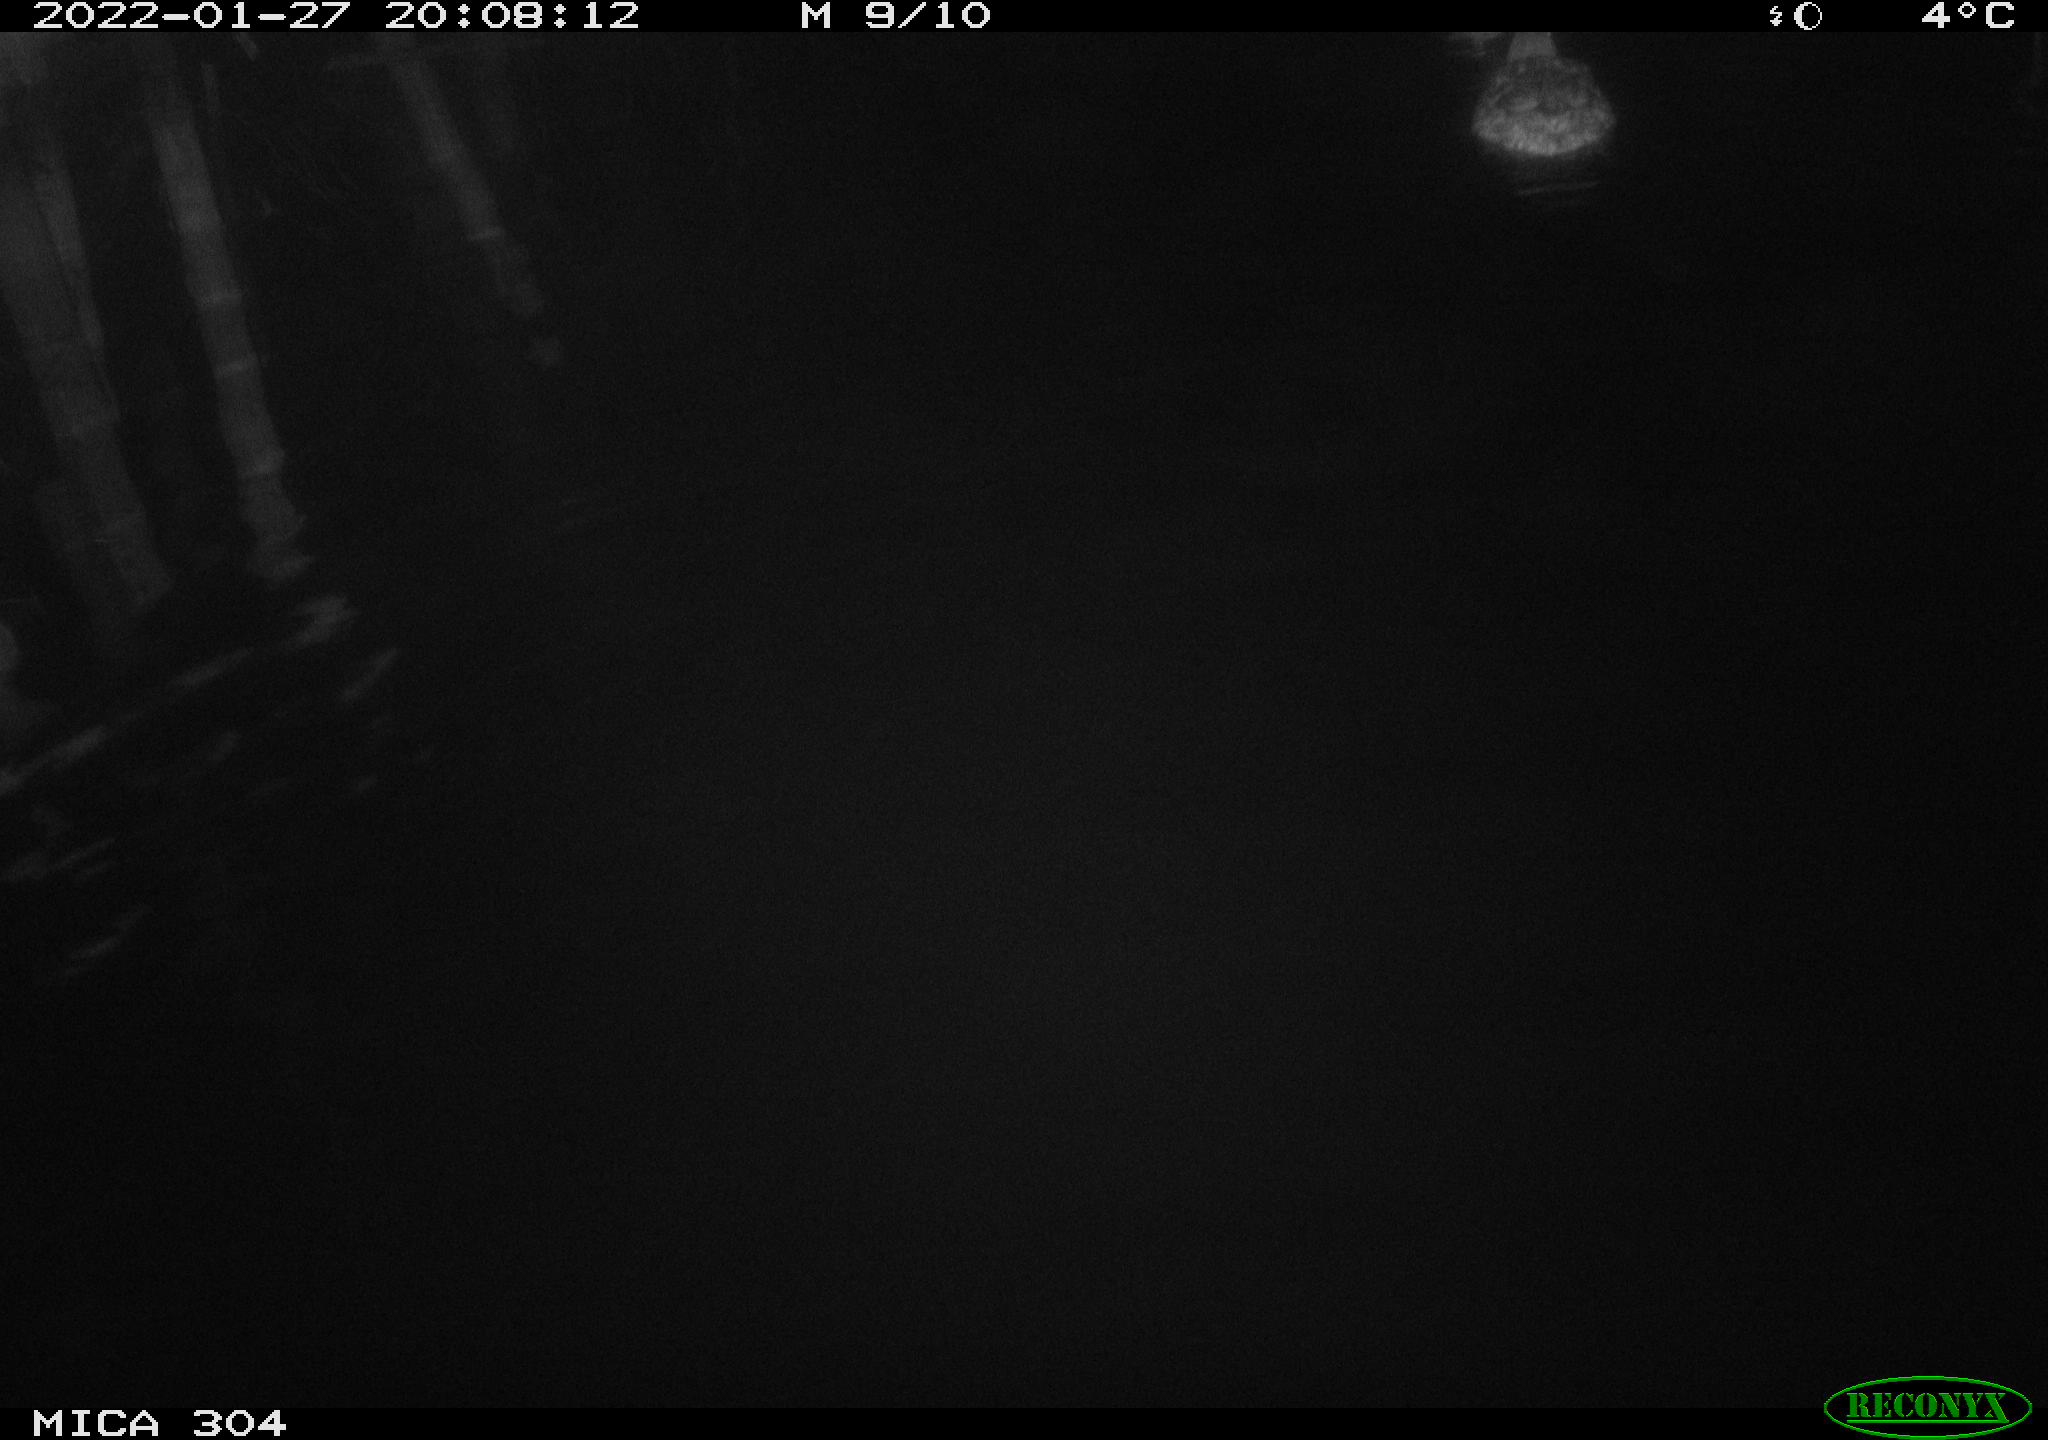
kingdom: Animalia
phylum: Chordata
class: Aves
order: Anseriformes
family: Anatidae
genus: Anas
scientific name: Anas
